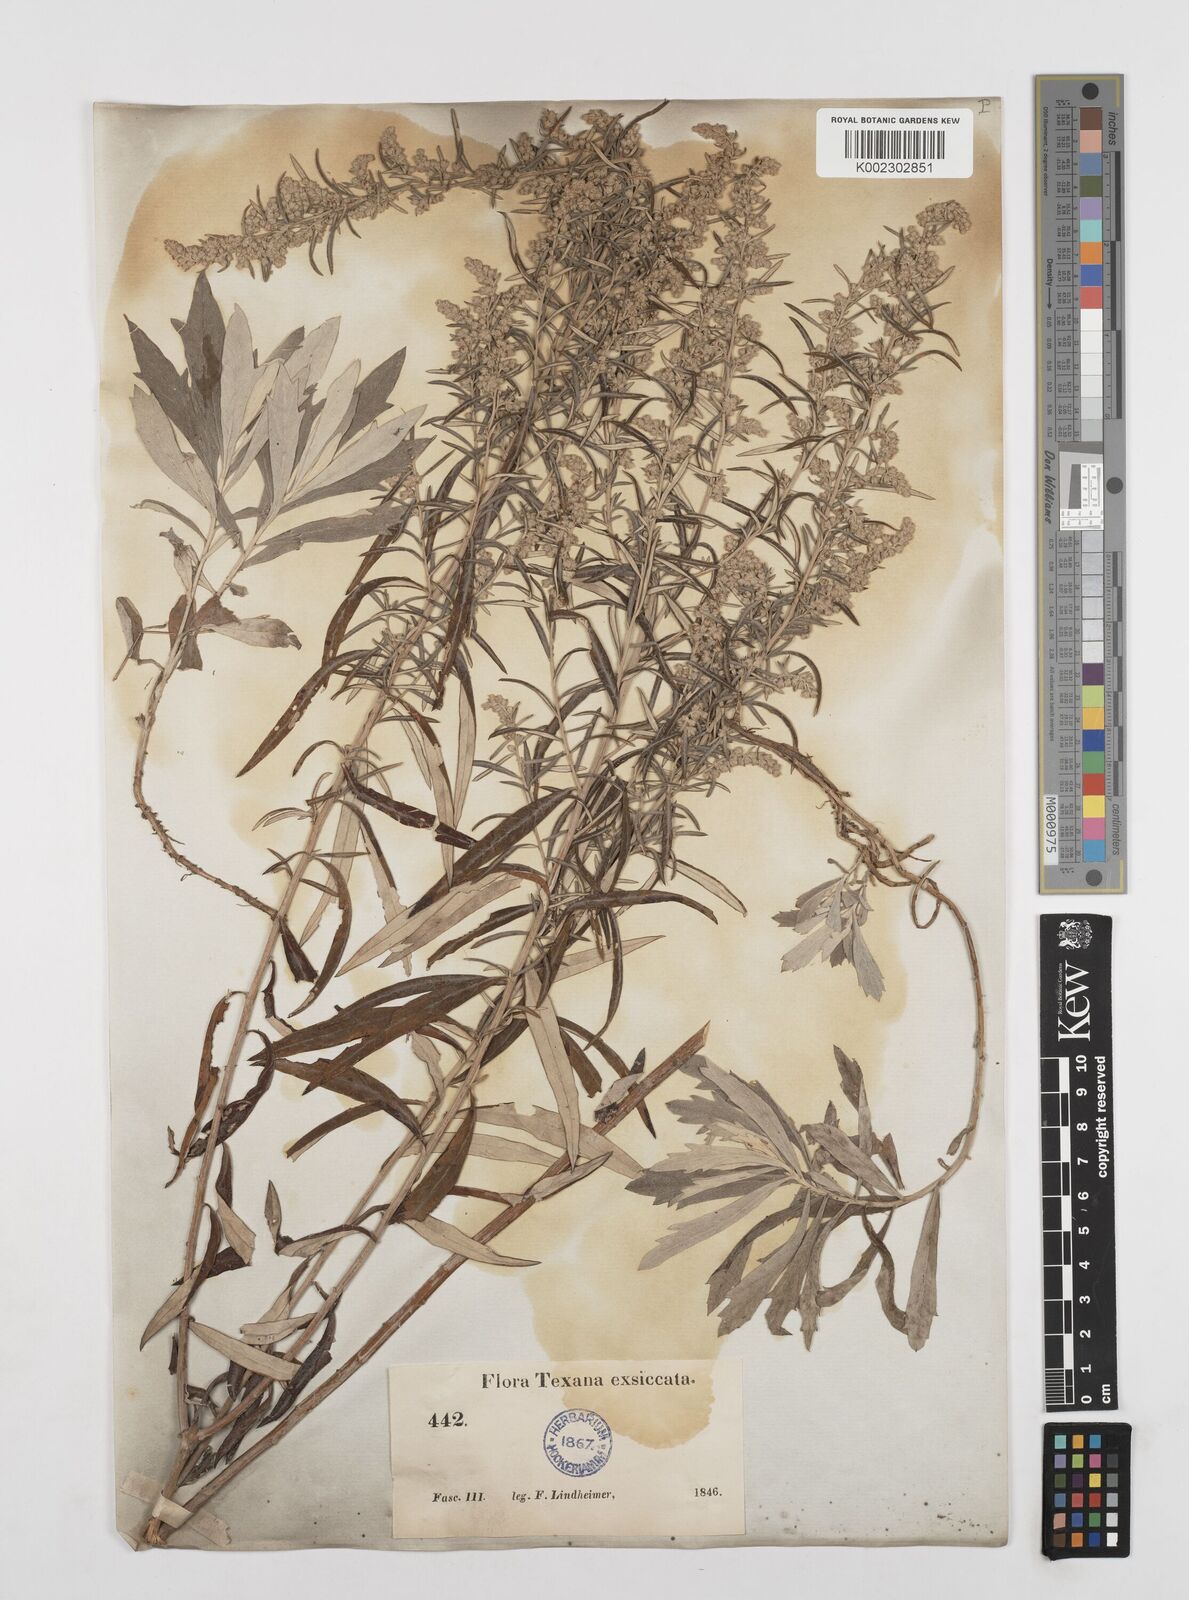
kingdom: Plantae
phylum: Tracheophyta
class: Magnoliopsida
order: Asterales
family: Asteraceae
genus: Artemisia
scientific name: Artemisia ludoviciana
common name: Western mugwort
